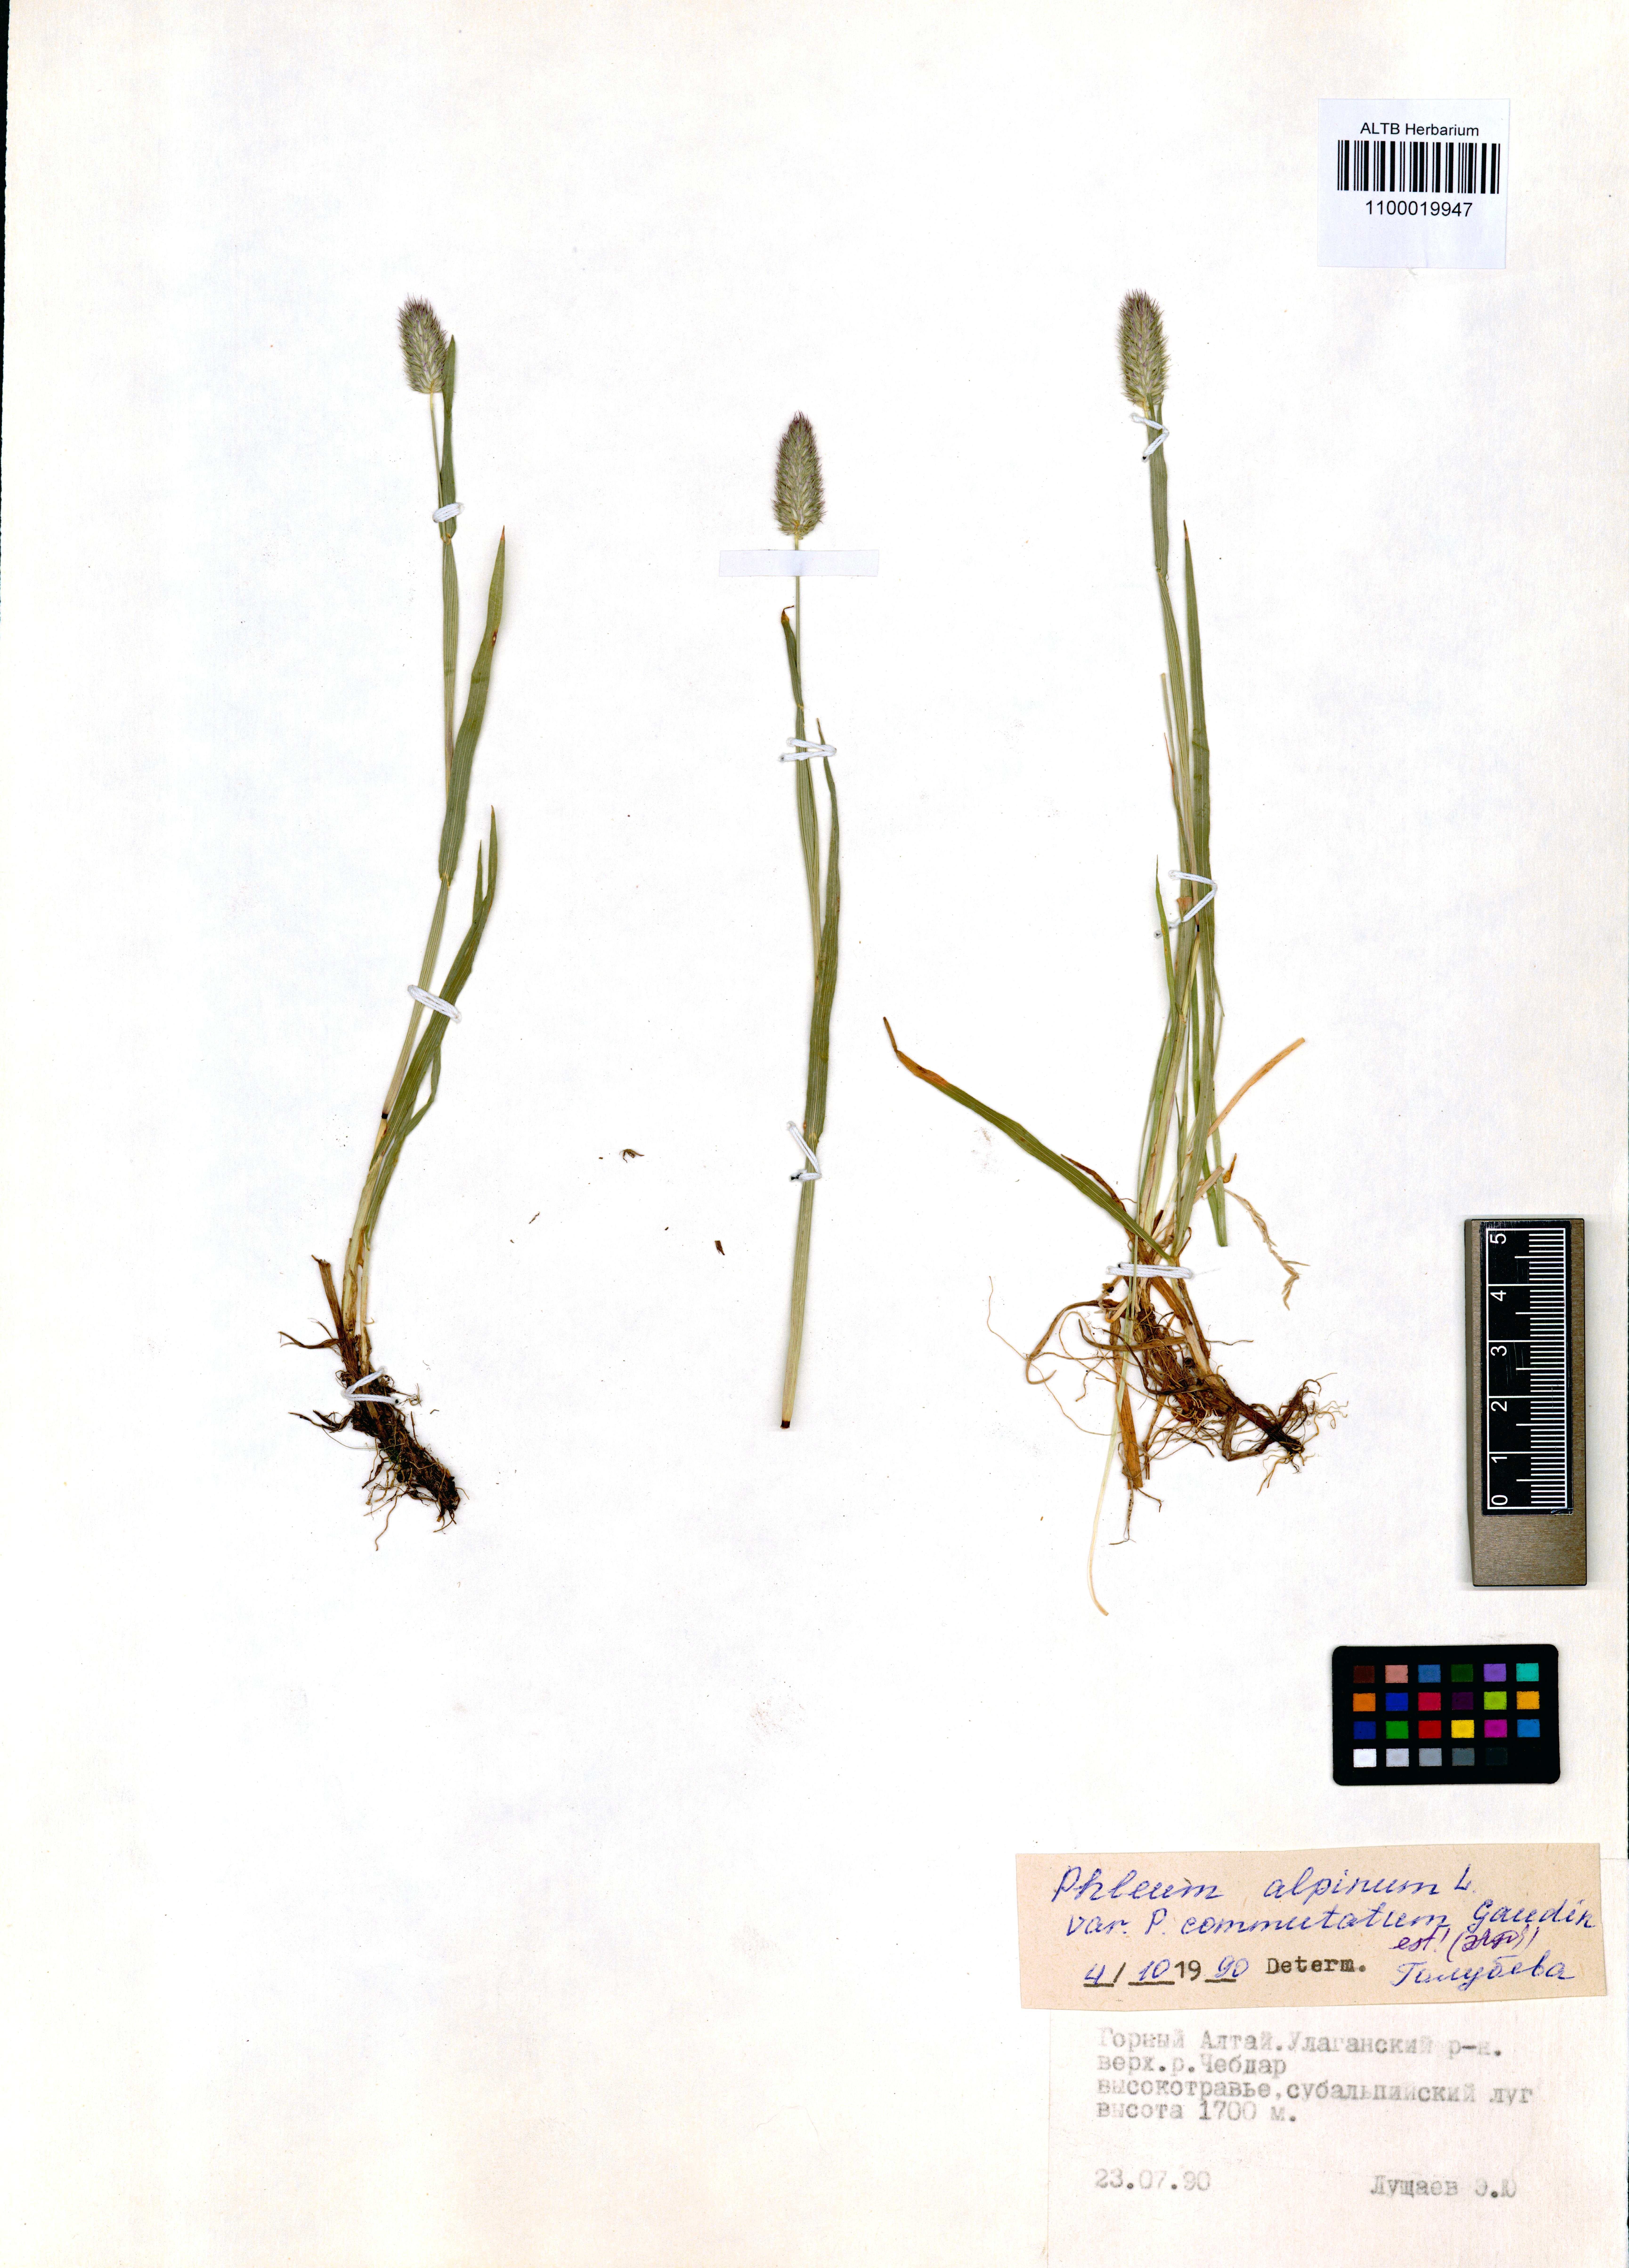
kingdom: Plantae
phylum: Tracheophyta
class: Liliopsida
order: Poales
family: Poaceae
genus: Phleum
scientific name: Phleum alpinum
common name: Alpine cat's-tail
